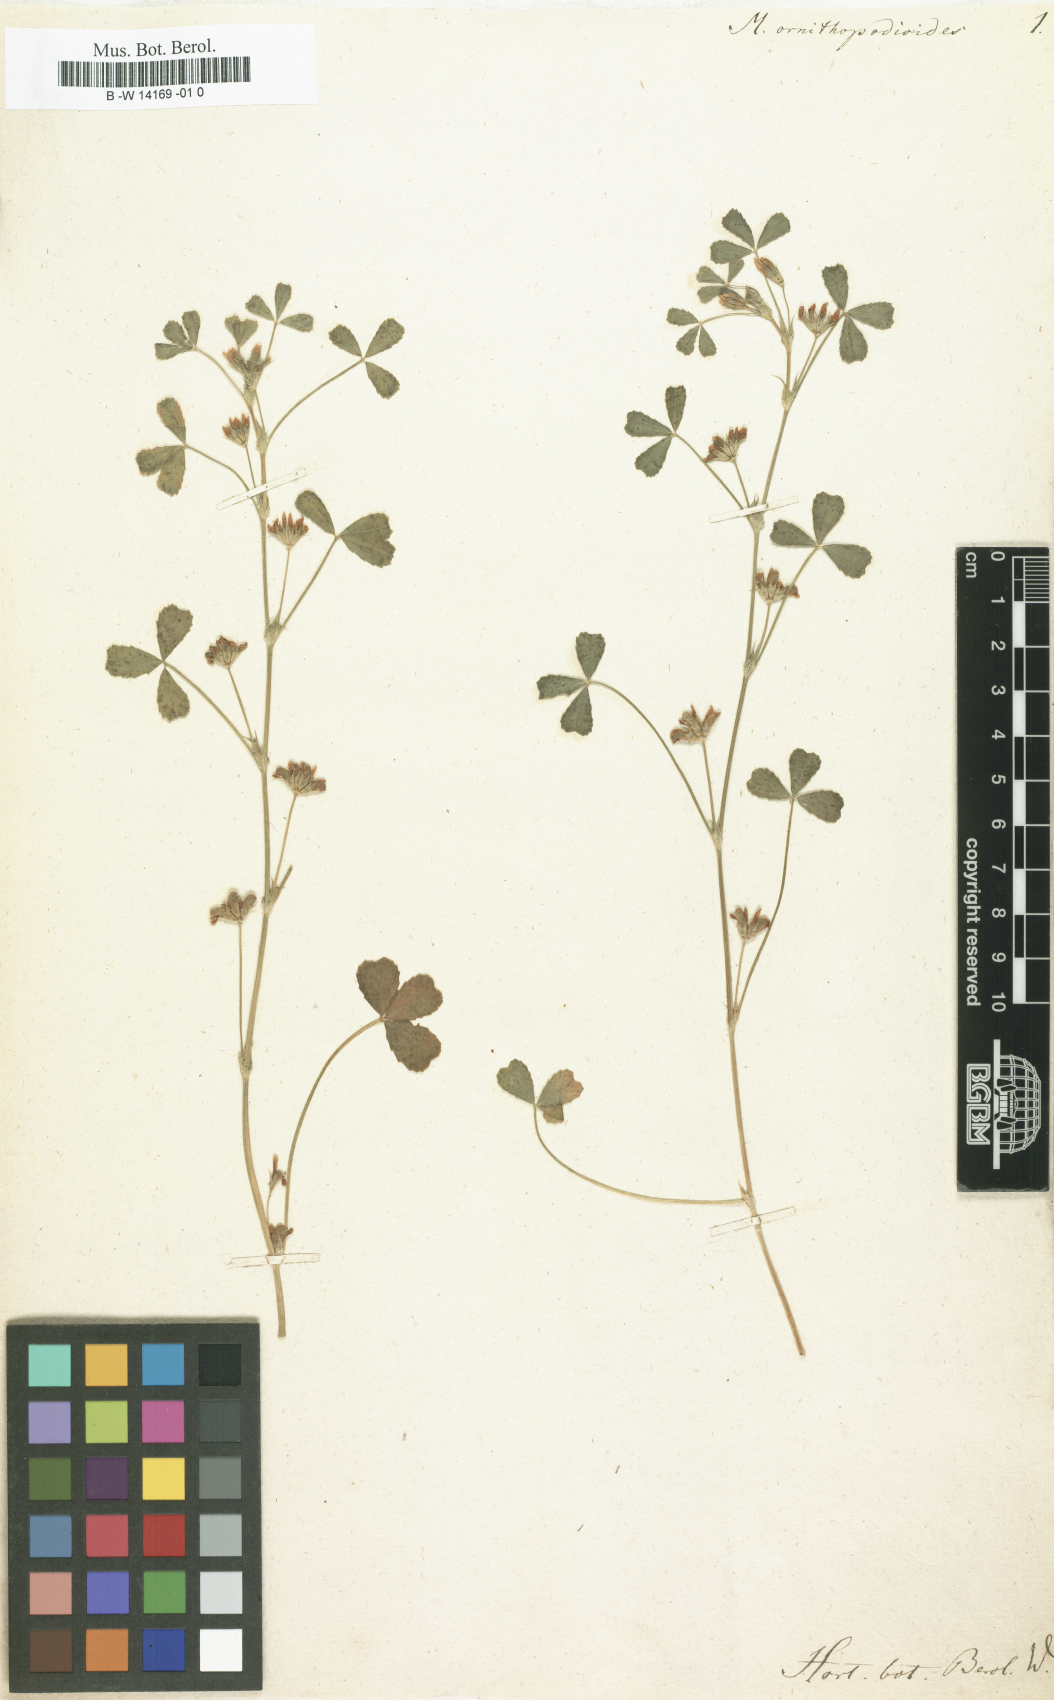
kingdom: Plantae
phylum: Tracheophyta
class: Magnoliopsida
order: Fabales
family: Fabaceae
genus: Trifolium
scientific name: Trifolium ornithopodioides
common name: Bird's-foot clover
